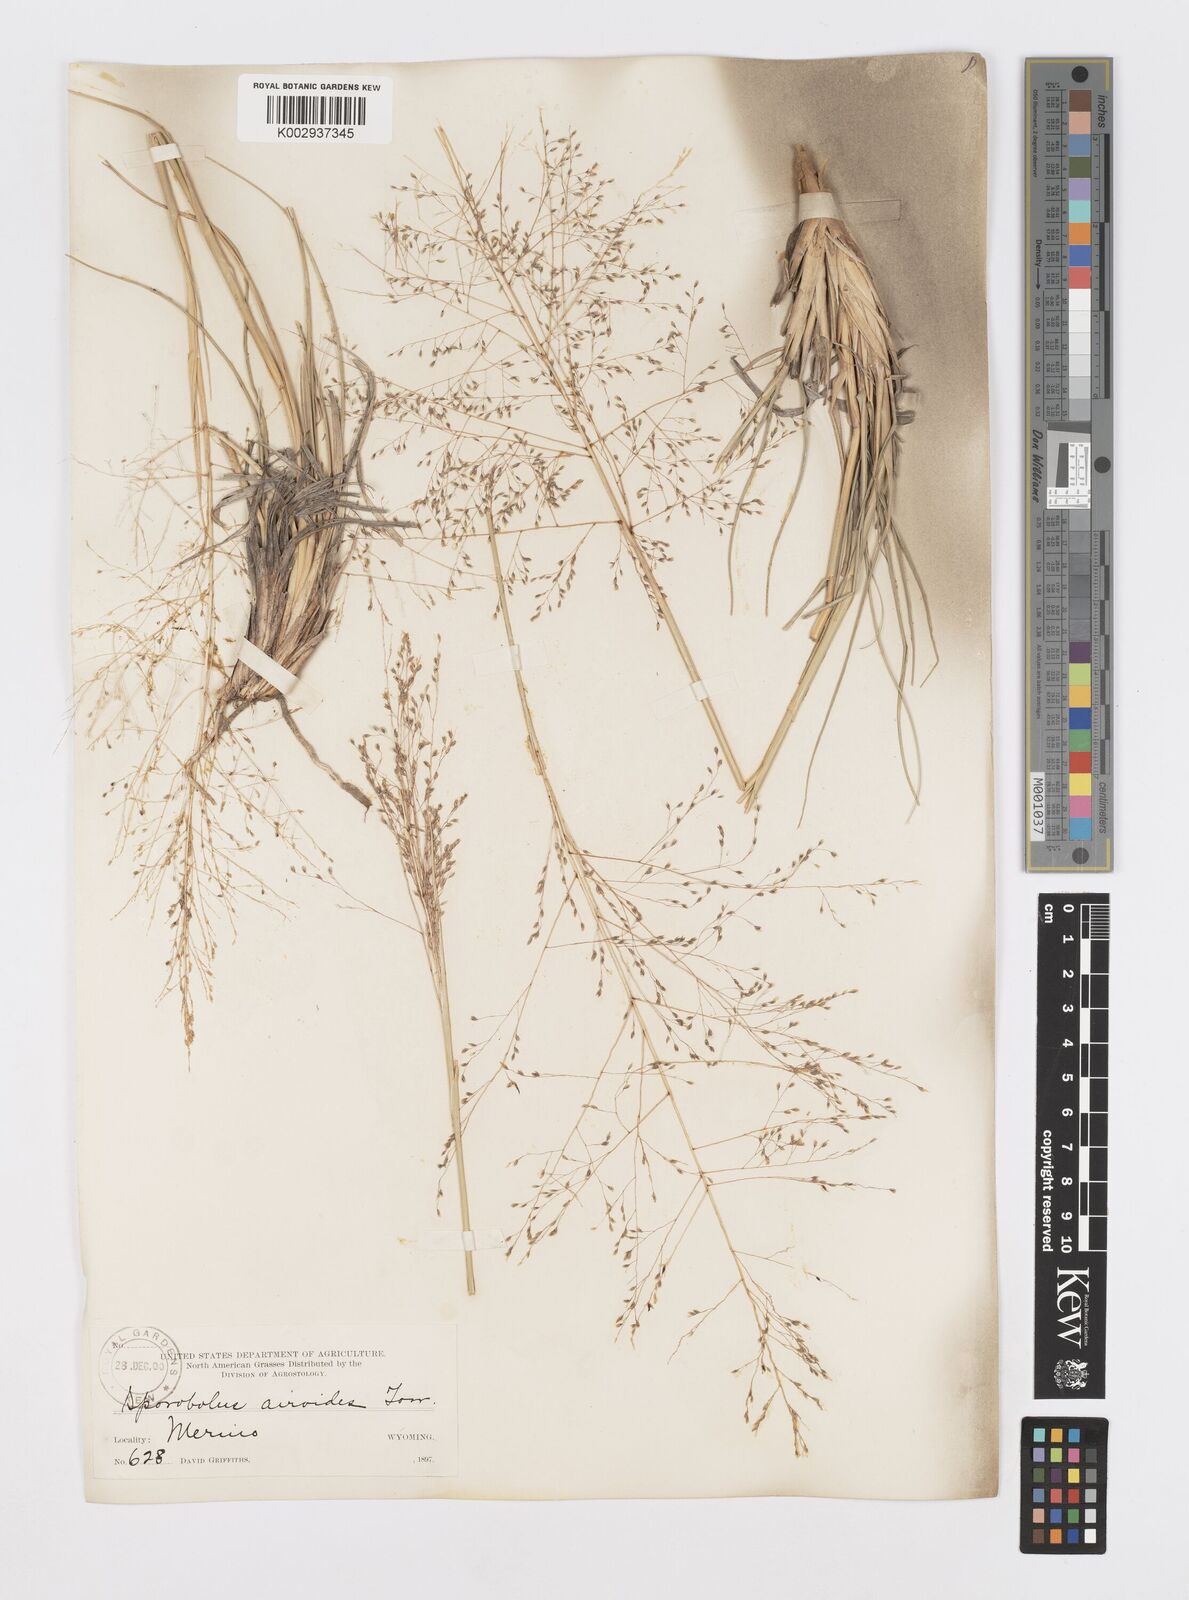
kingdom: Plantae
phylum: Tracheophyta
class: Liliopsida
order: Poales
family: Poaceae
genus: Sporobolus
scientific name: Sporobolus airoides
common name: Alkali sacaton
